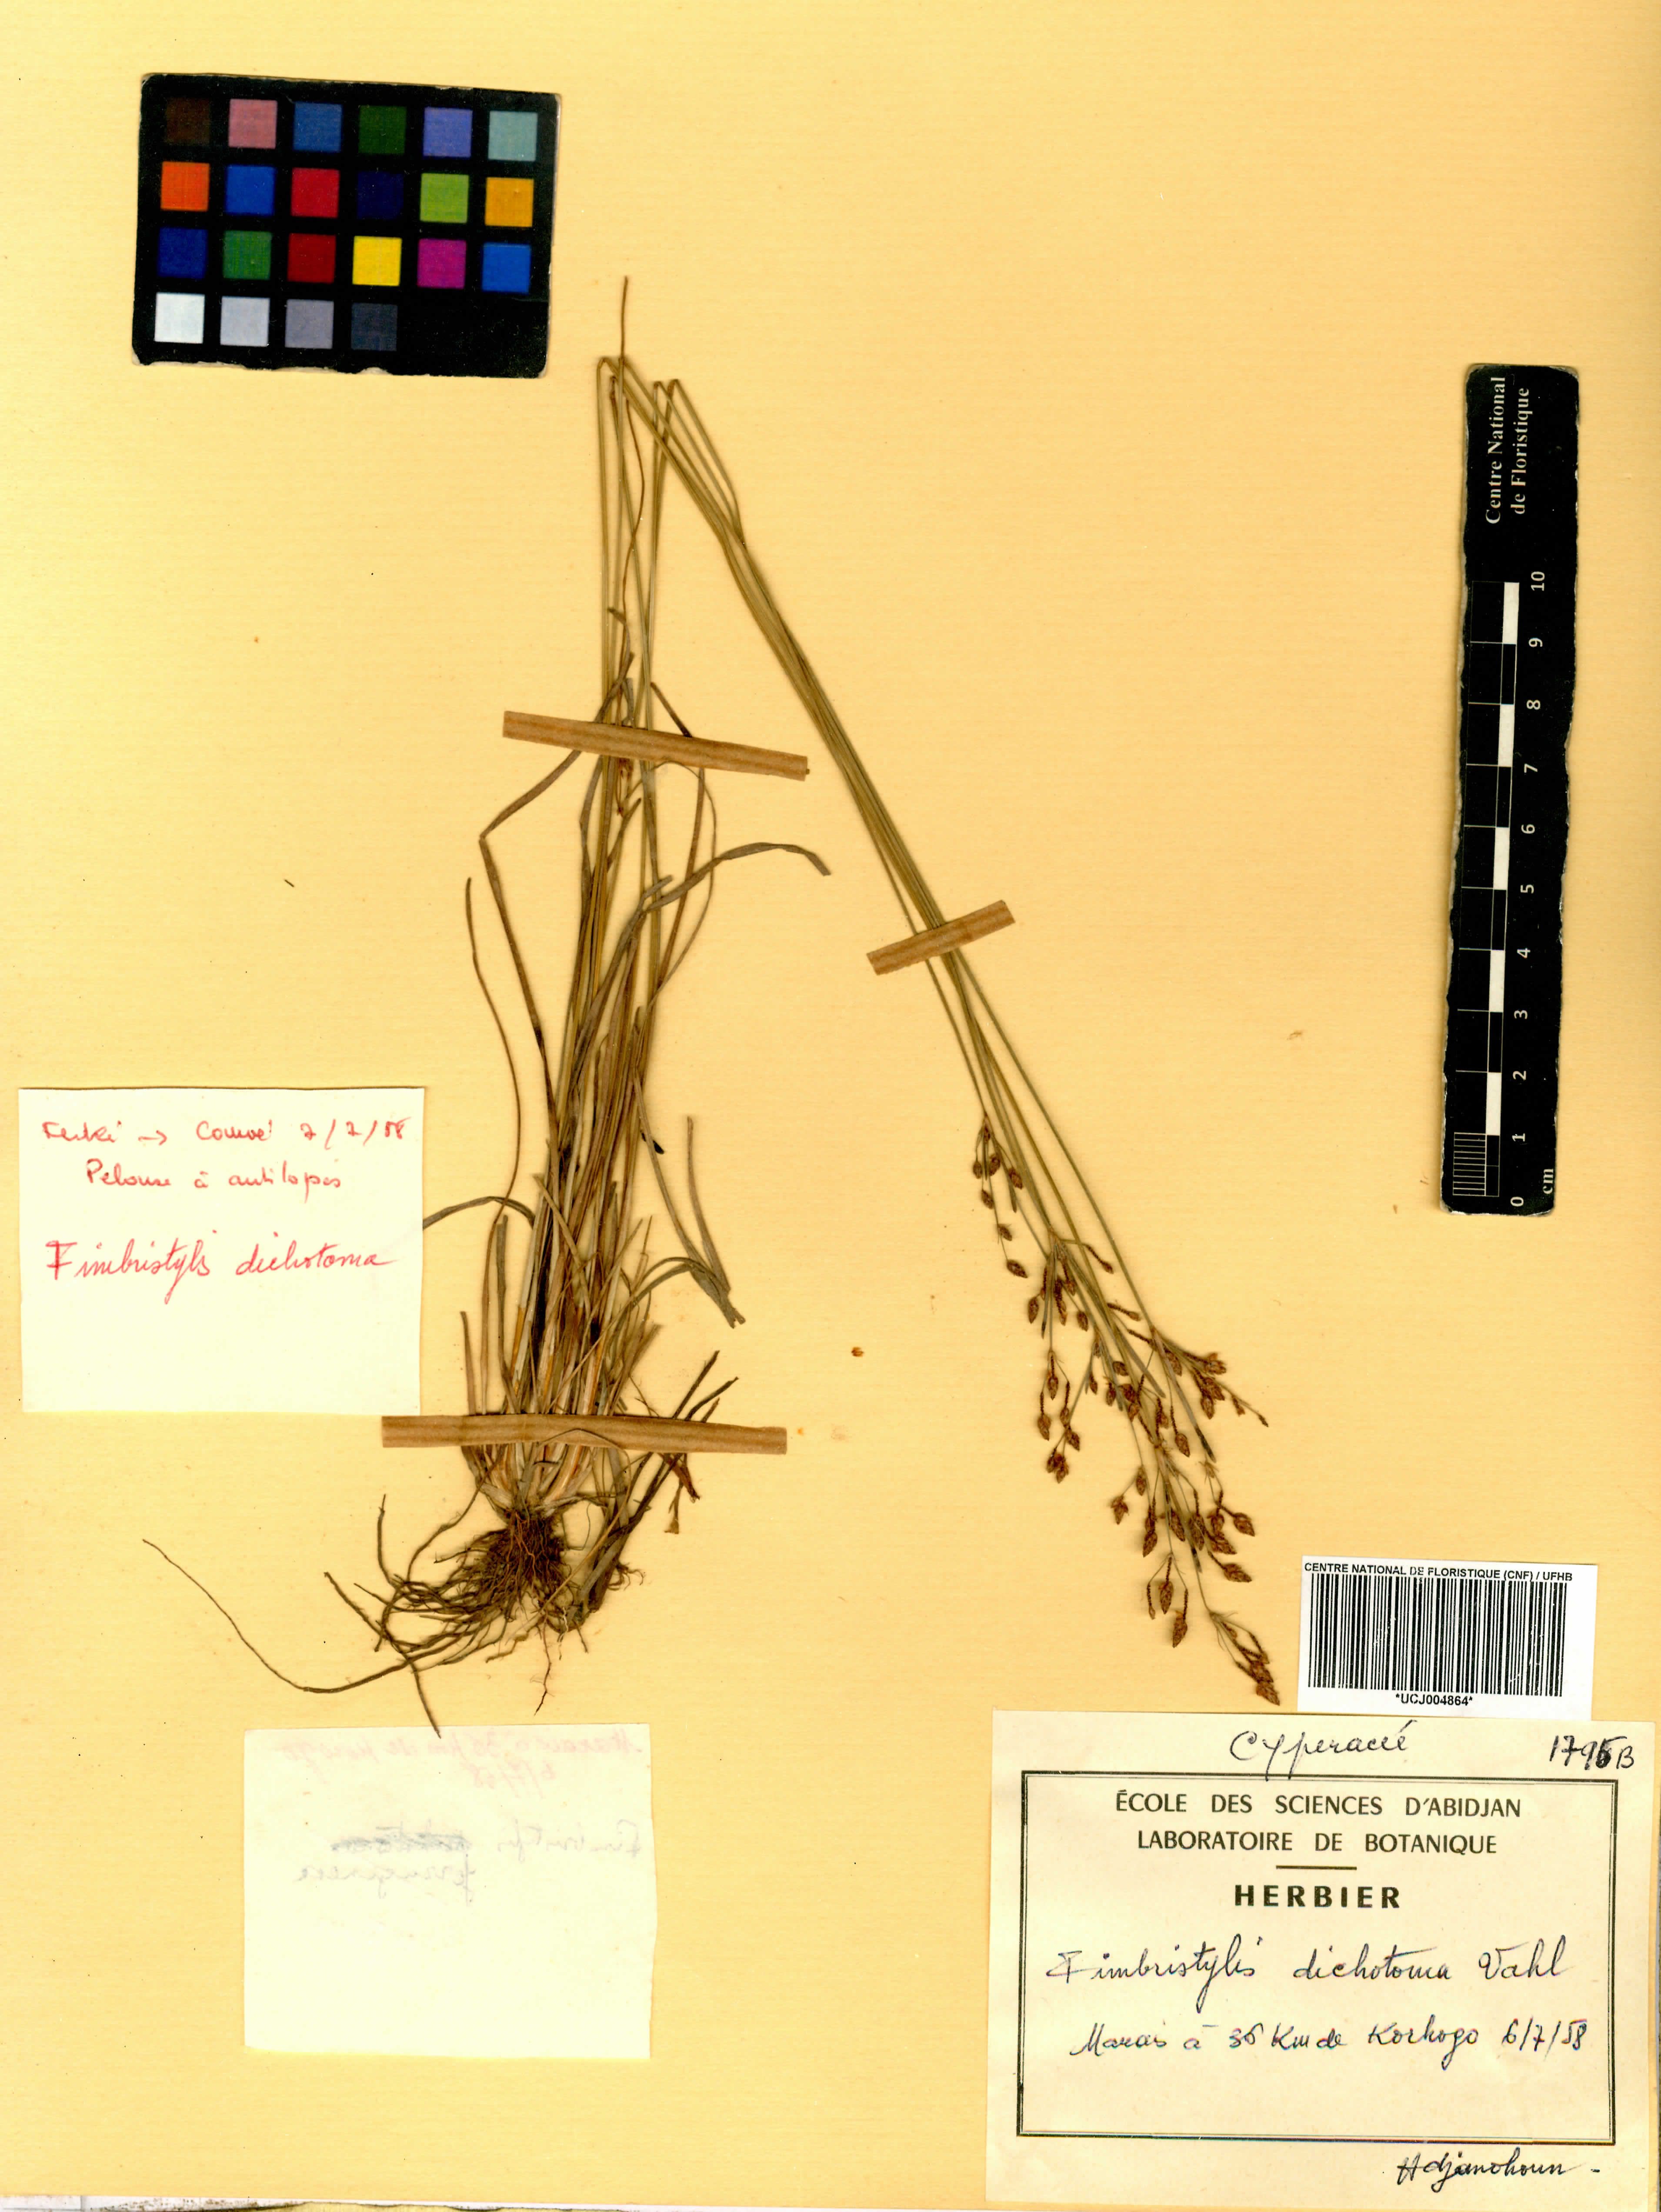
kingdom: Plantae
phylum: Tracheophyta
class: Liliopsida
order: Poales
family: Cyperaceae
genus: Fimbristylis
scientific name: Fimbristylis dichotoma
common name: Forked fimbry
